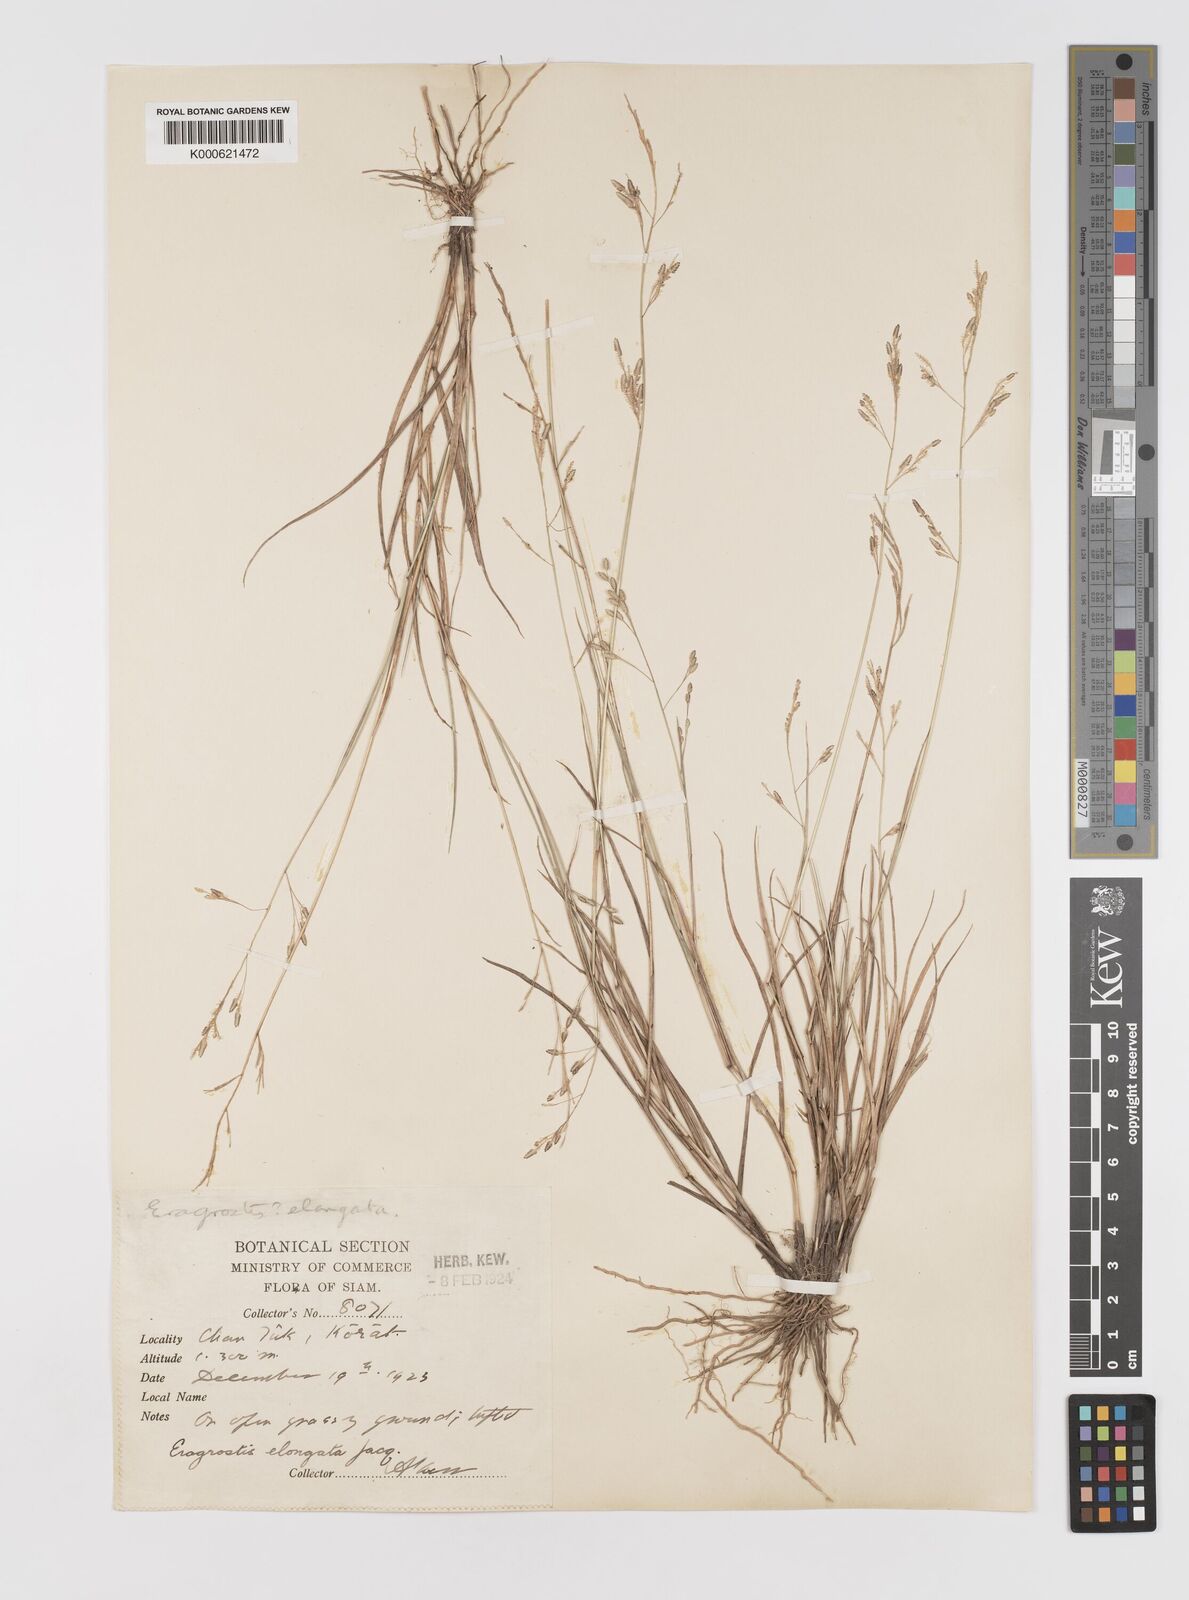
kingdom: Plantae
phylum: Tracheophyta
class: Liliopsida
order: Poales
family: Poaceae
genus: Eragrostis
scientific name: Eragrostis brownii
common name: Lovegrass
